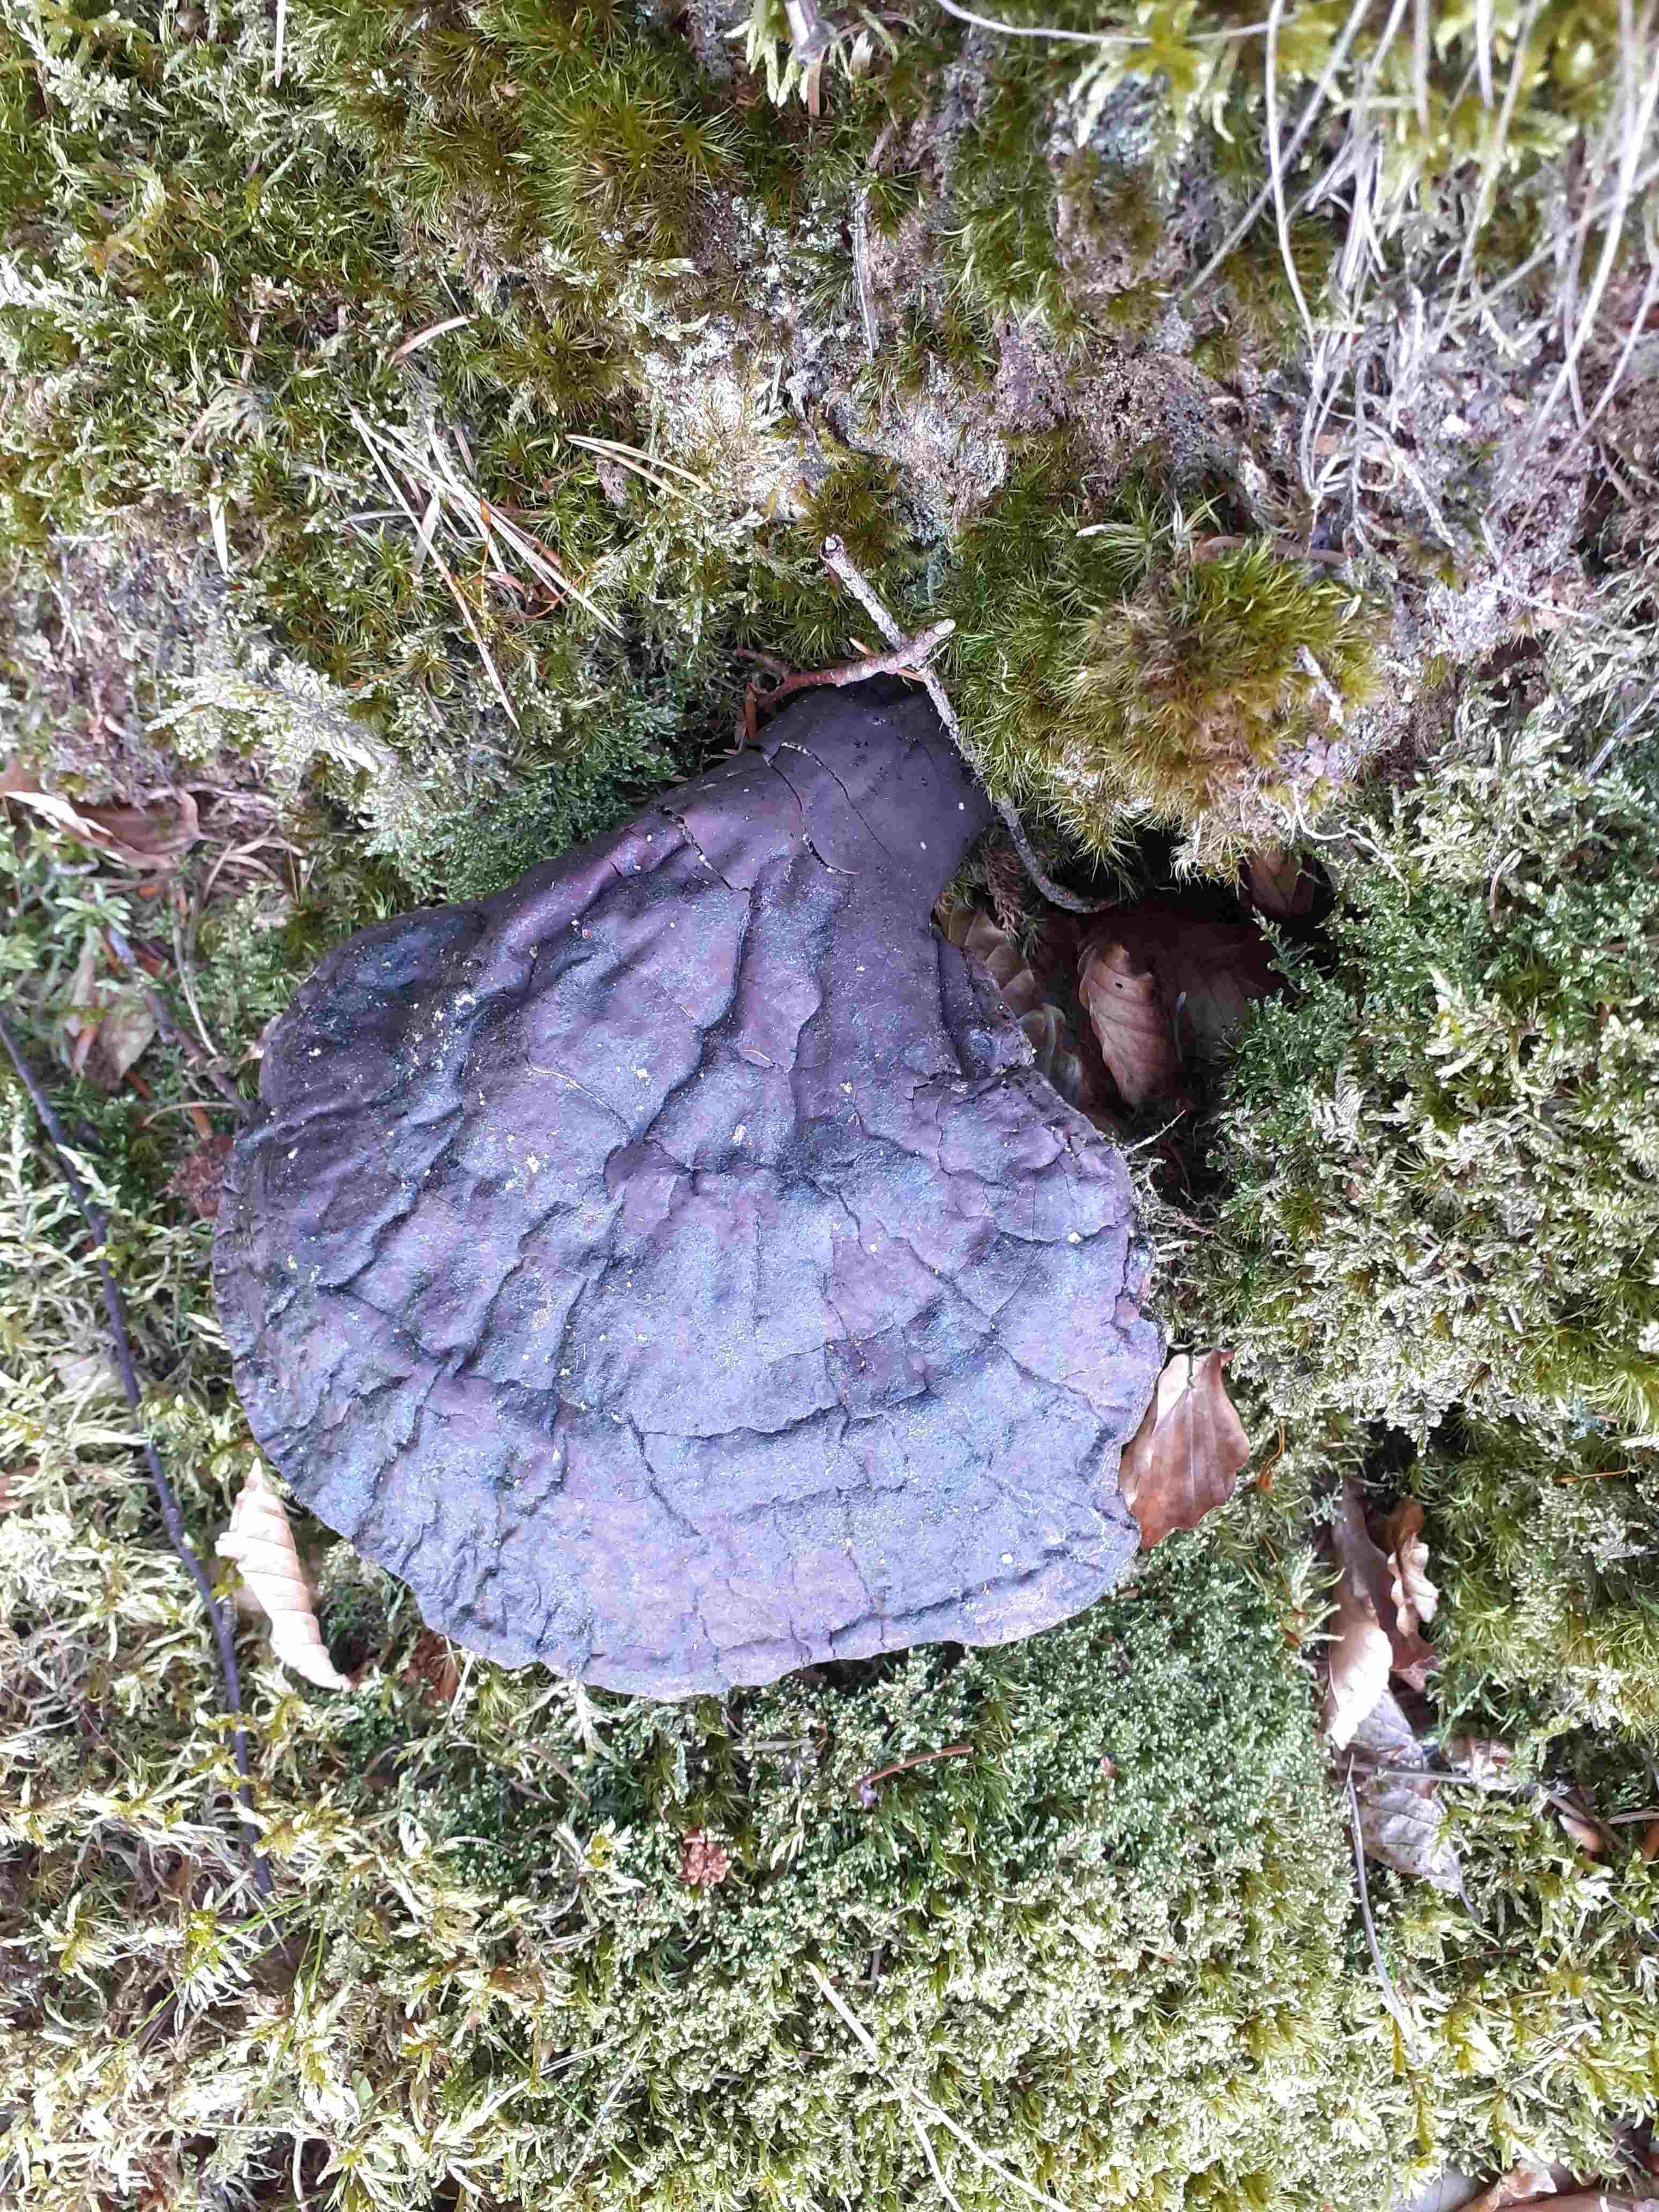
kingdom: Fungi
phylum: Basidiomycota
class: Agaricomycetes
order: Polyporales
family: Polyporaceae
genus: Ganoderma
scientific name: Ganoderma lucidum
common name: skinnende lakporesvamp
